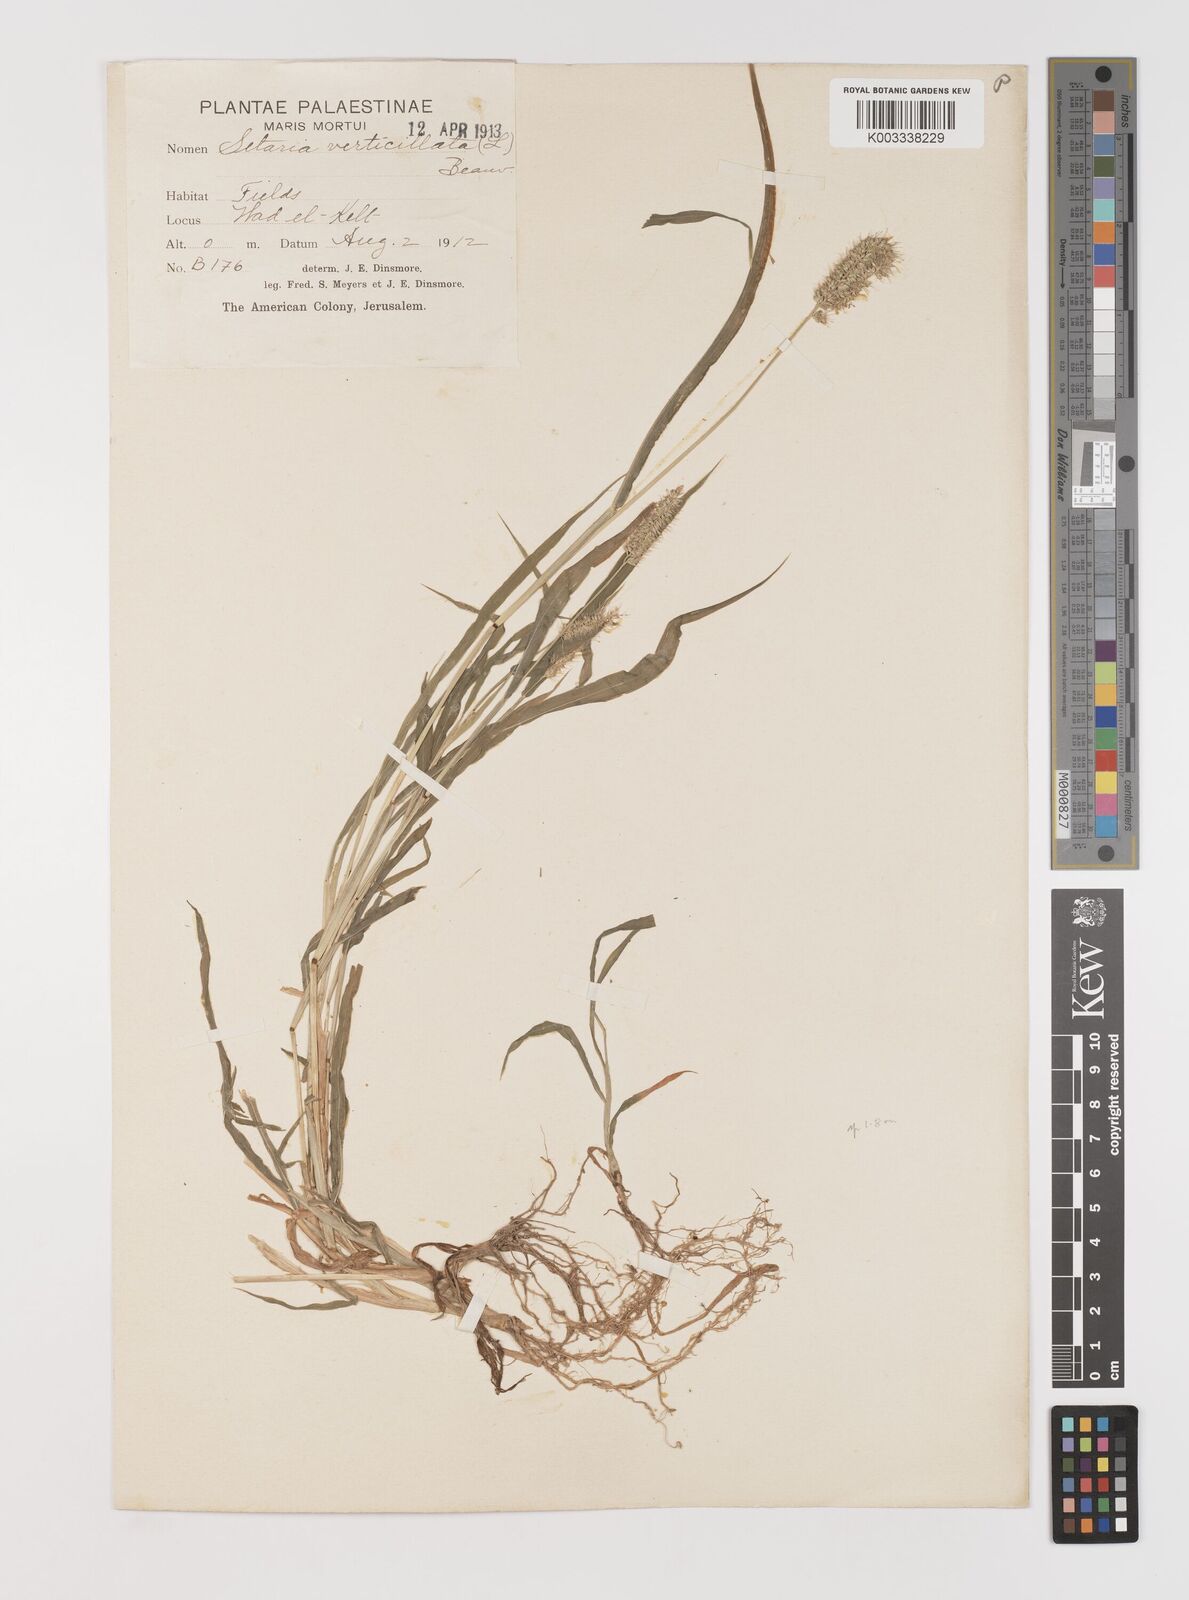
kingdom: Plantae
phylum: Tracheophyta
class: Liliopsida
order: Poales
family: Poaceae
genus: Setaria
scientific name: Setaria verticillata
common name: Hooked bristlegrass
